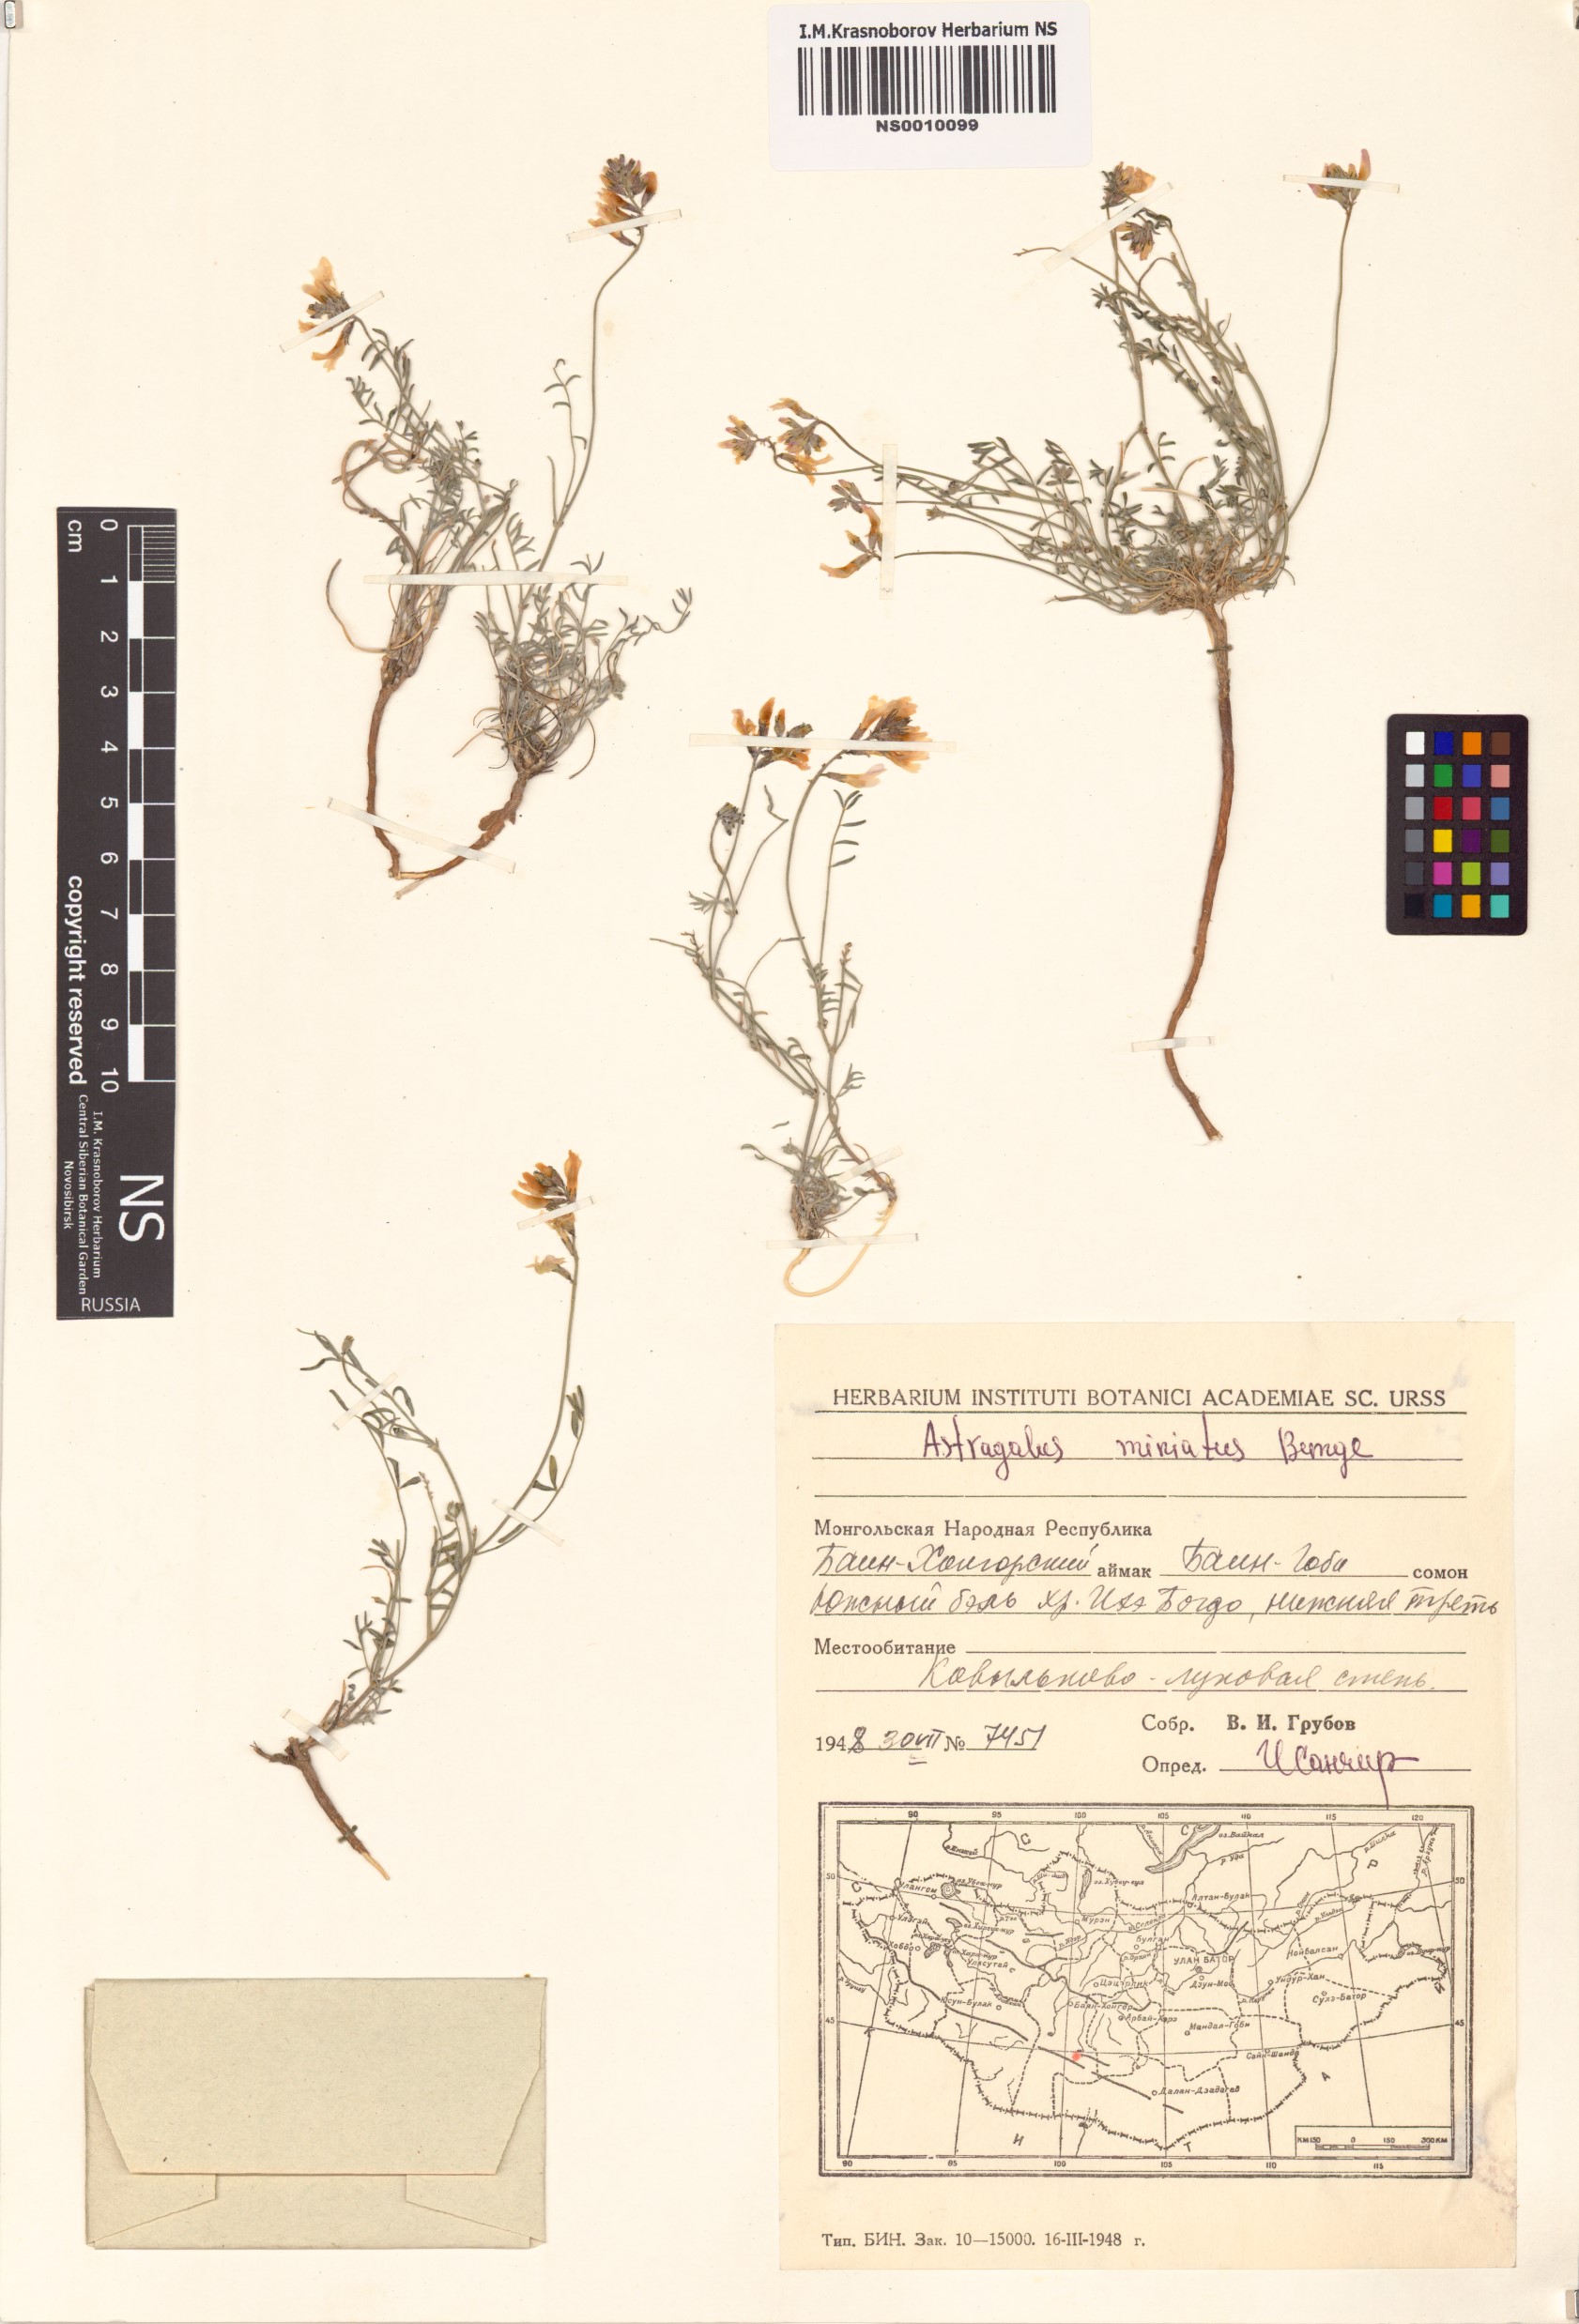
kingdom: Plantae
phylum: Tracheophyta
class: Magnoliopsida
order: Fabales
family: Fabaceae
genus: Astragalus
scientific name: Astragalus miniatus
